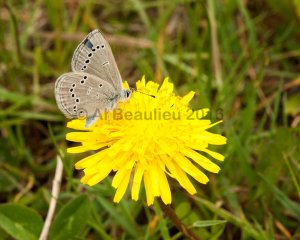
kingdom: Animalia
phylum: Arthropoda
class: Insecta
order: Lepidoptera
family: Lycaenidae
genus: Glaucopsyche
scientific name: Glaucopsyche lygdamus
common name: Silvery Blue
